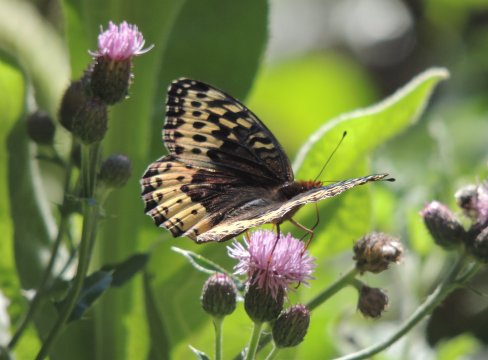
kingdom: Animalia
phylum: Arthropoda
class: Insecta
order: Lepidoptera
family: Nymphalidae
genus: Speyeria
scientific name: Speyeria cybele
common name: Great Spangled Fritillary
